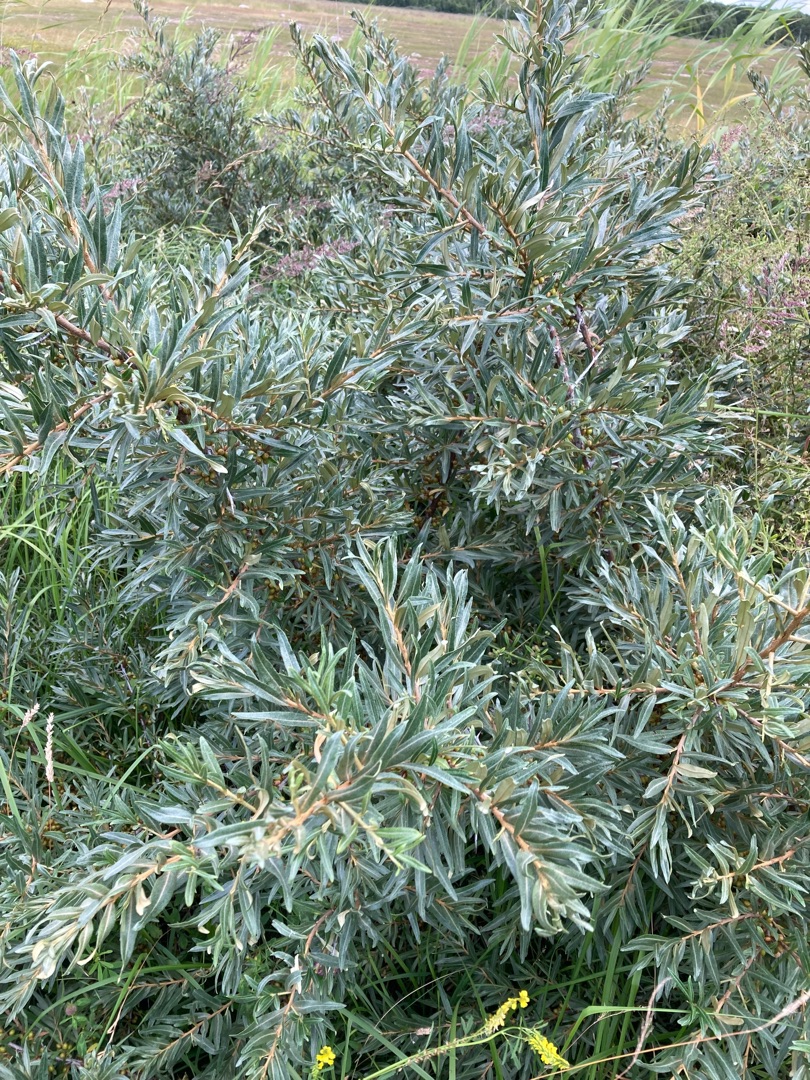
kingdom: Plantae
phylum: Tracheophyta
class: Magnoliopsida
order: Rosales
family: Elaeagnaceae
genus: Hippophae
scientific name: Hippophae rhamnoides
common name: Havtorn
